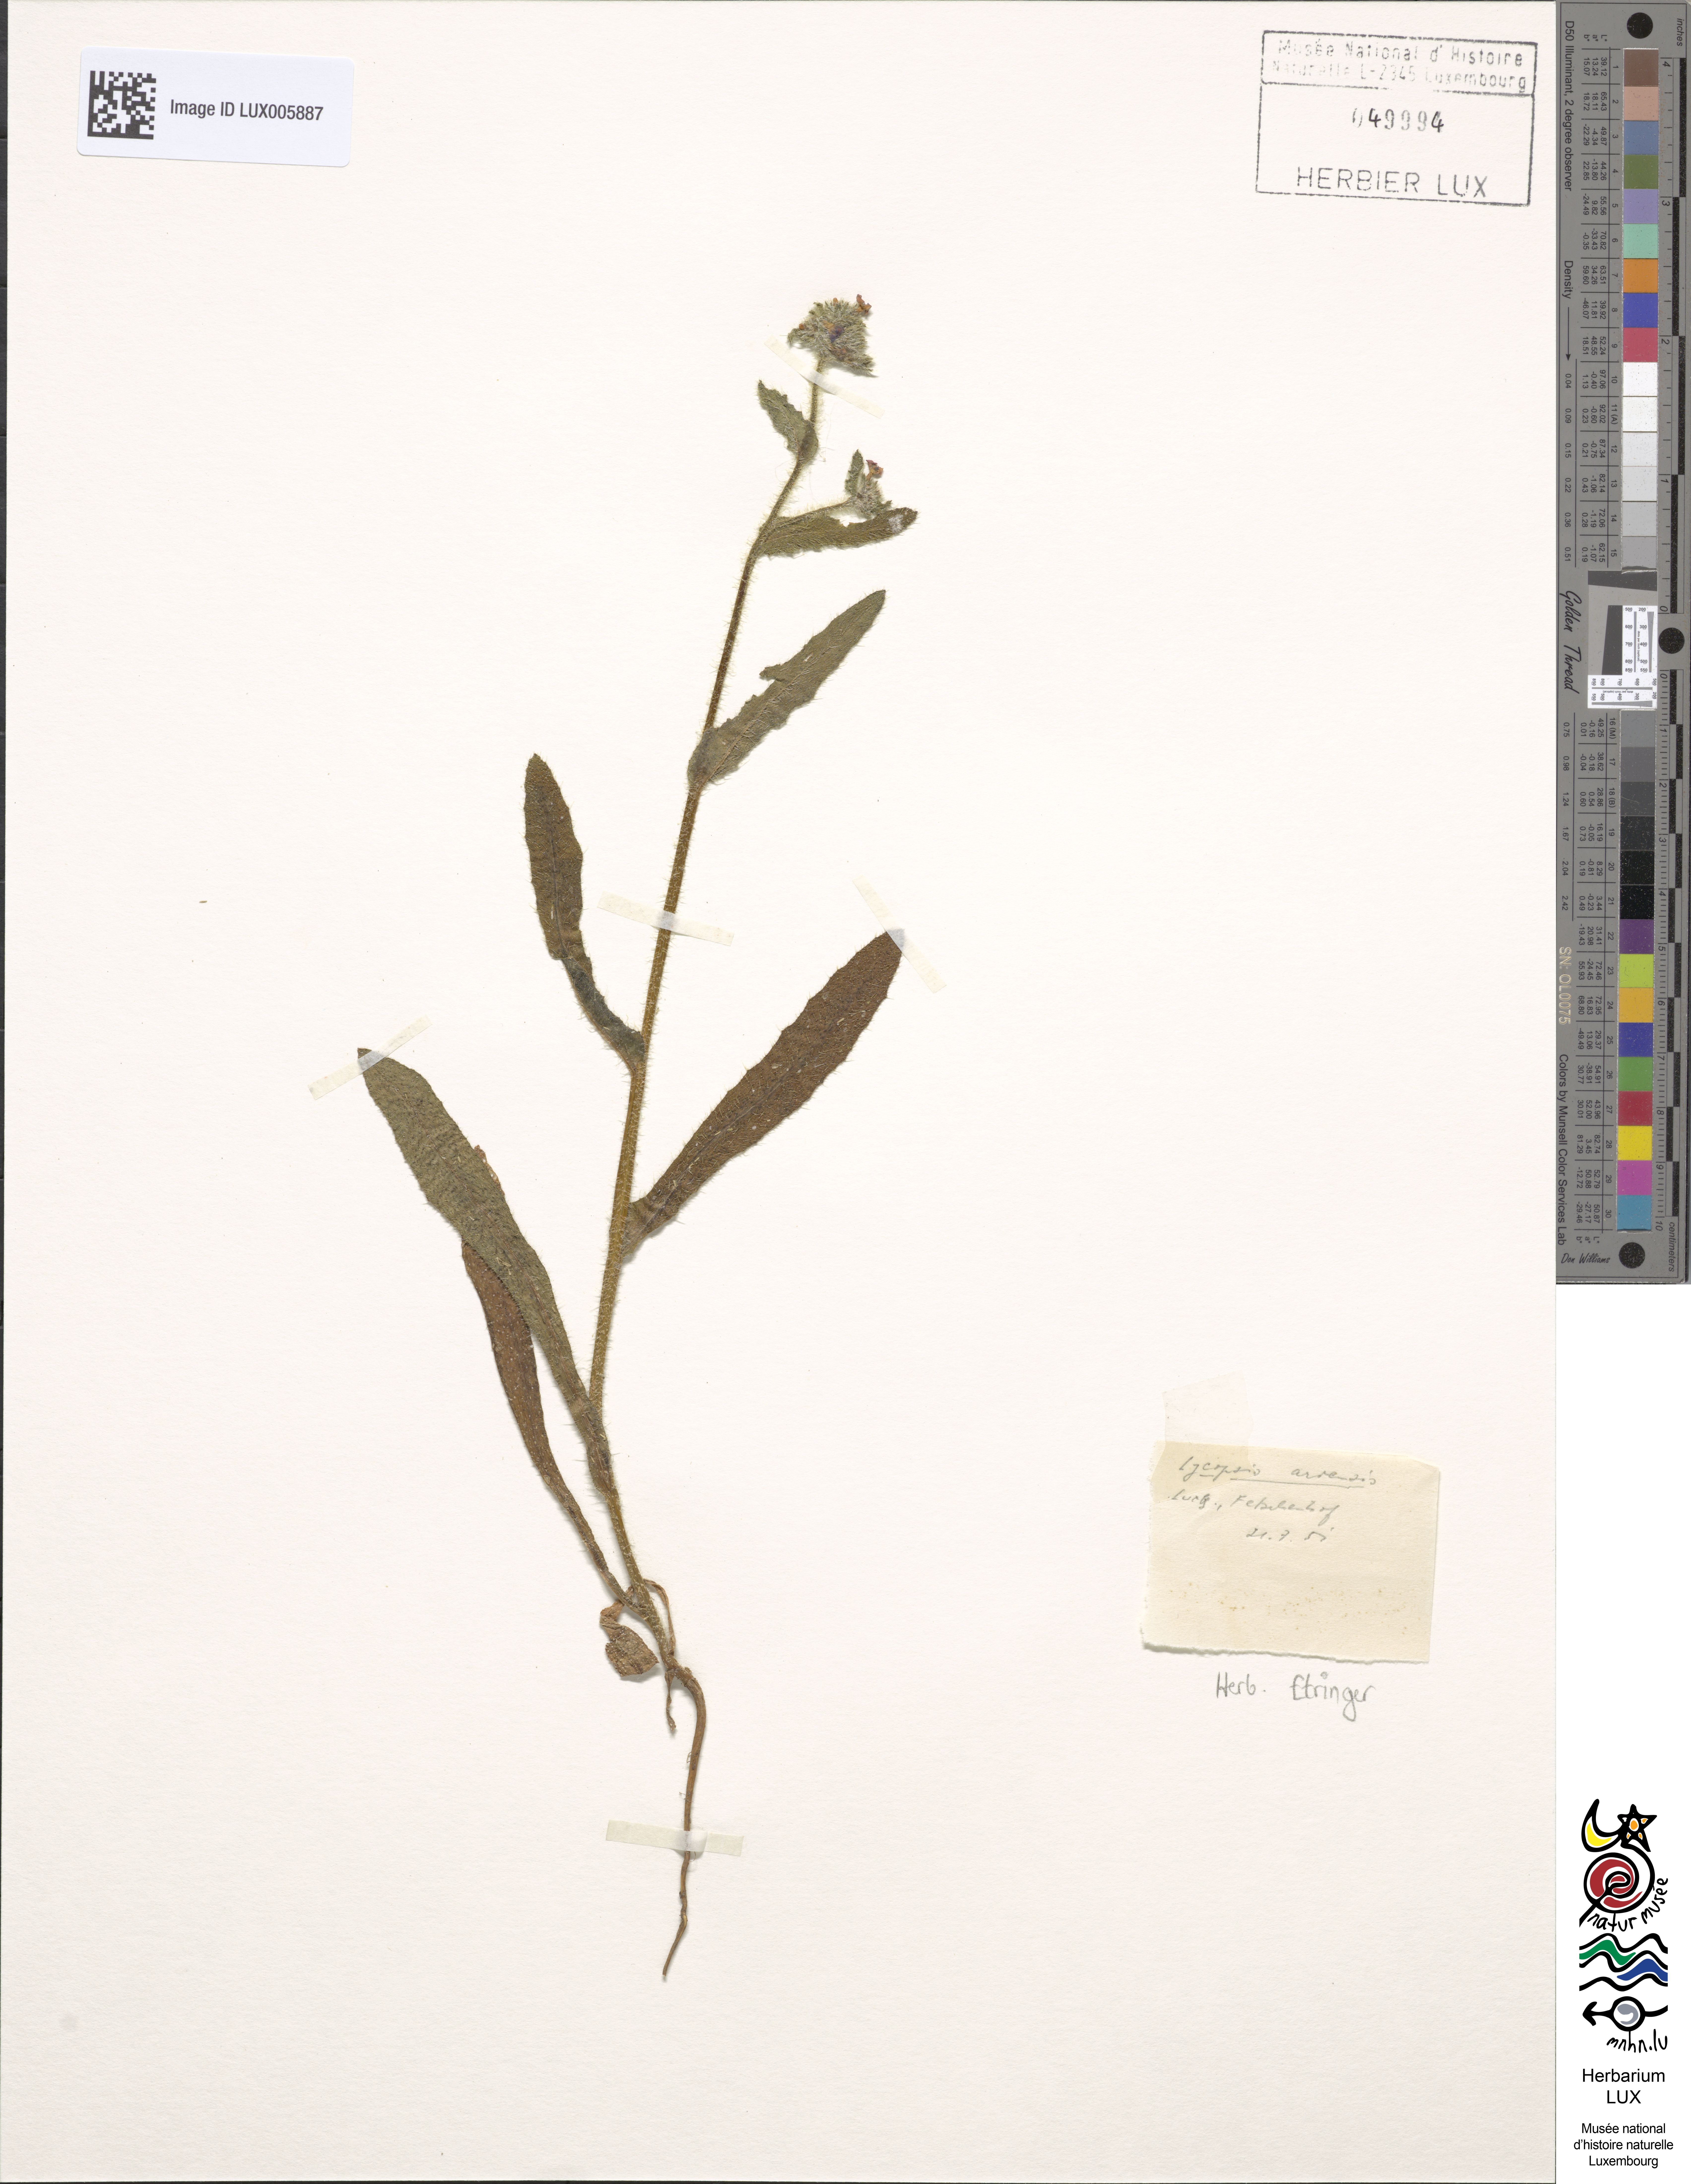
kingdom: Plantae
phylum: Tracheophyta
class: Magnoliopsida
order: Boraginales
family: Boraginaceae
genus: Lycopsis
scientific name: Lycopsis arvensis
